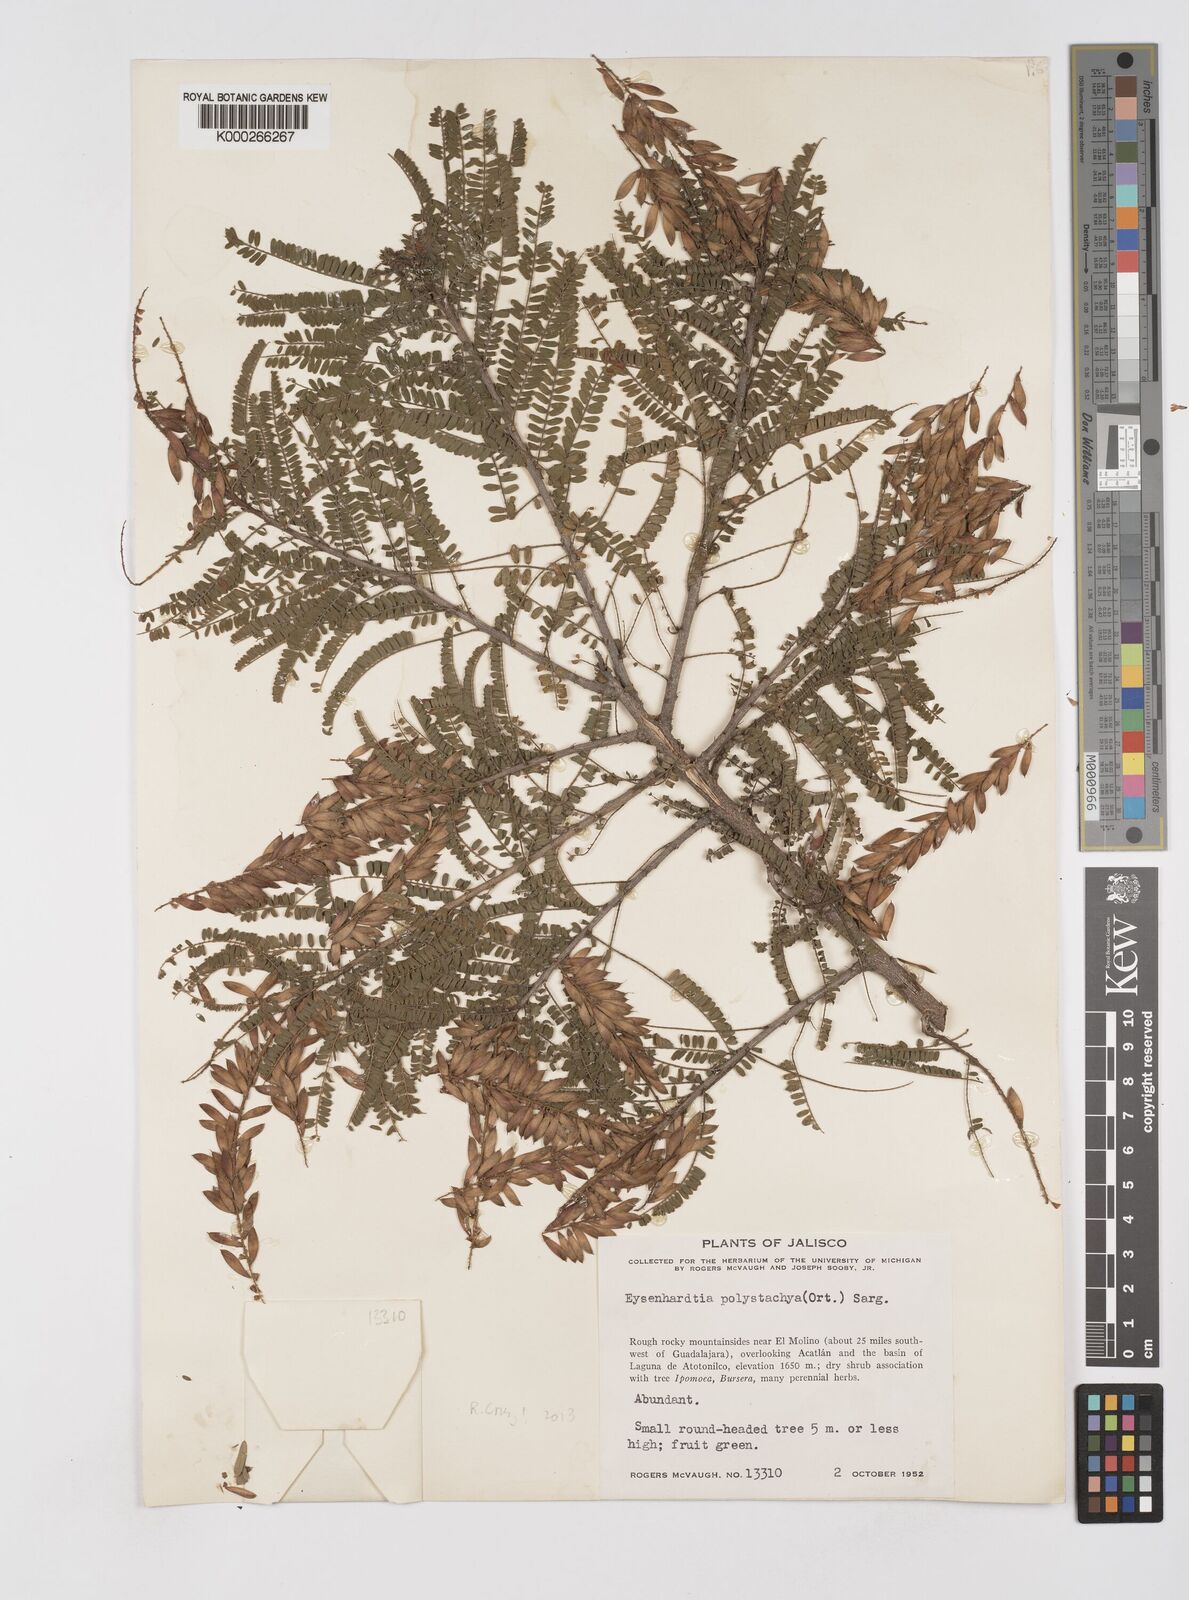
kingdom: Plantae
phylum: Tracheophyta
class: Magnoliopsida
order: Fabales
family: Fabaceae
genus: Eysenhardtia
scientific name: Eysenhardtia polystachya
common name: Kidneywood
